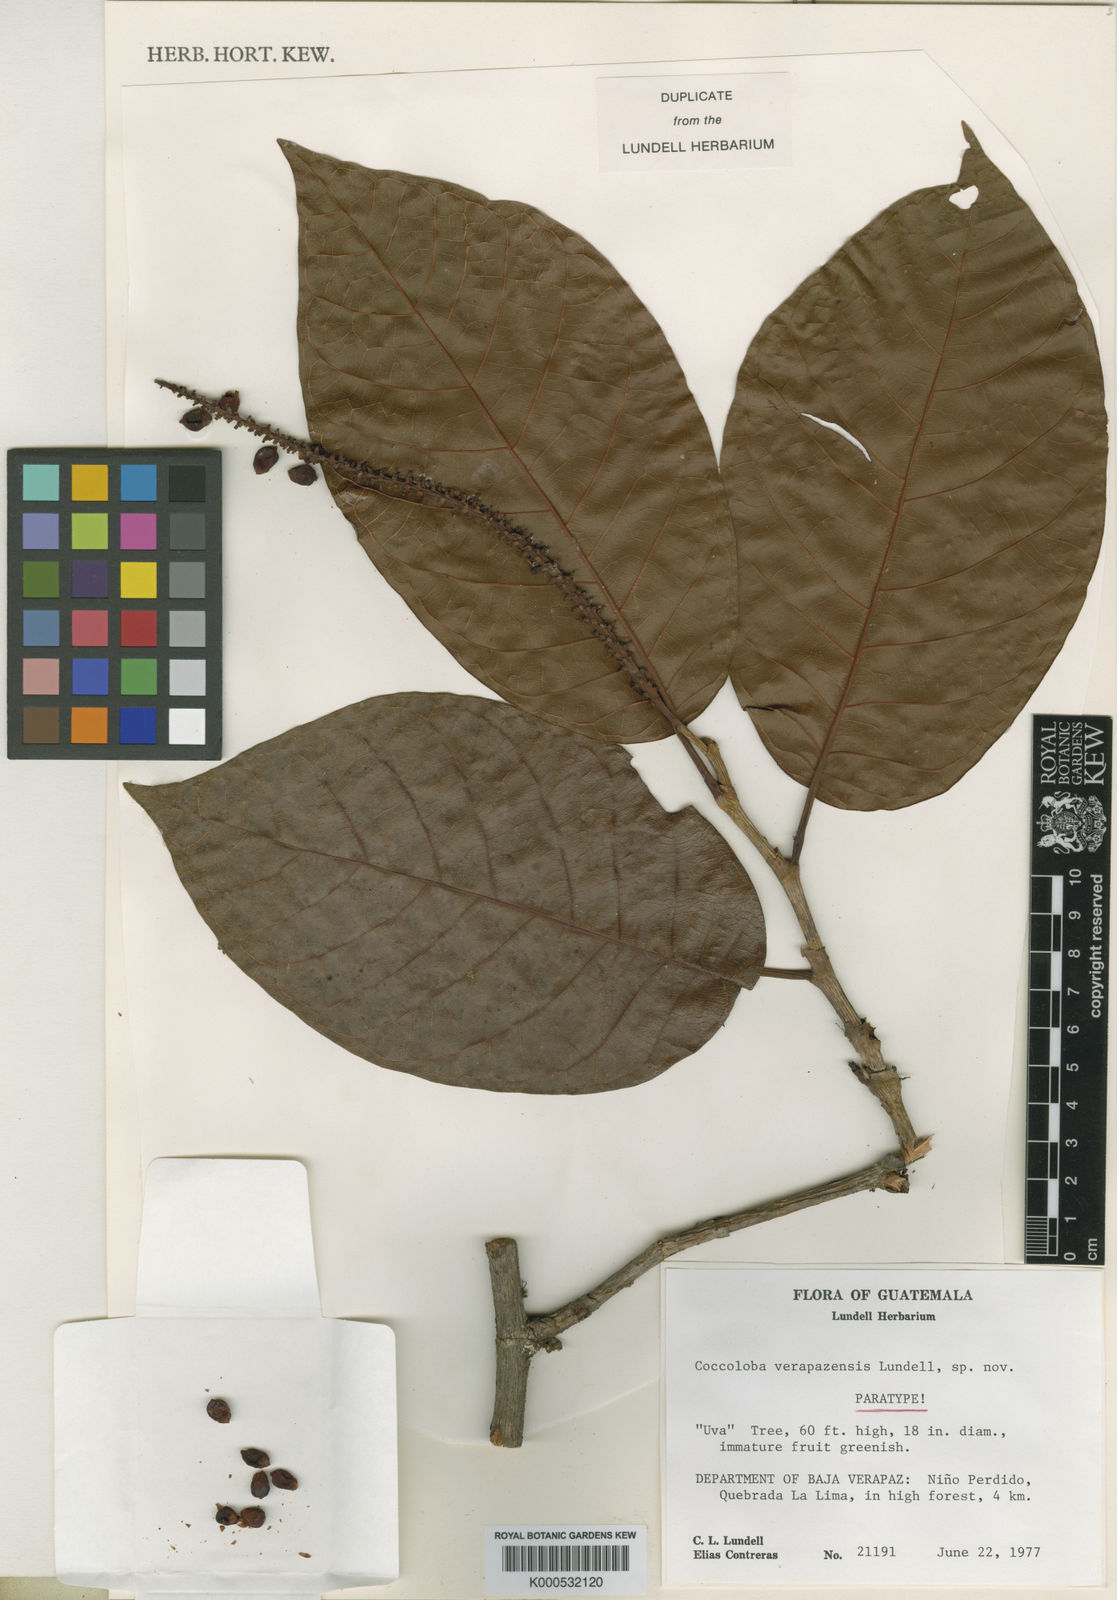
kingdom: Plantae
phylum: Tracheophyta
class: Magnoliopsida
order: Caryophyllales
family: Polygonaceae
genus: Coccoloba
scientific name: Coccoloba hondurensis
